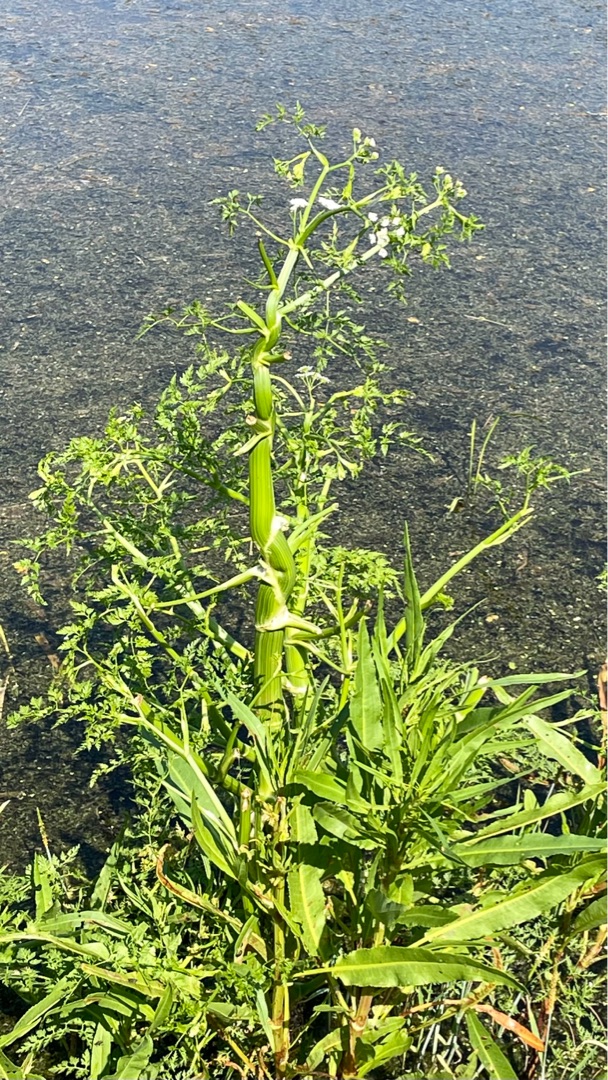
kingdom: Plantae
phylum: Tracheophyta
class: Magnoliopsida
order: Apiales
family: Apiaceae
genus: Oenanthe
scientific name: Oenanthe aquatica
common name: Billebo-klaseskærm
